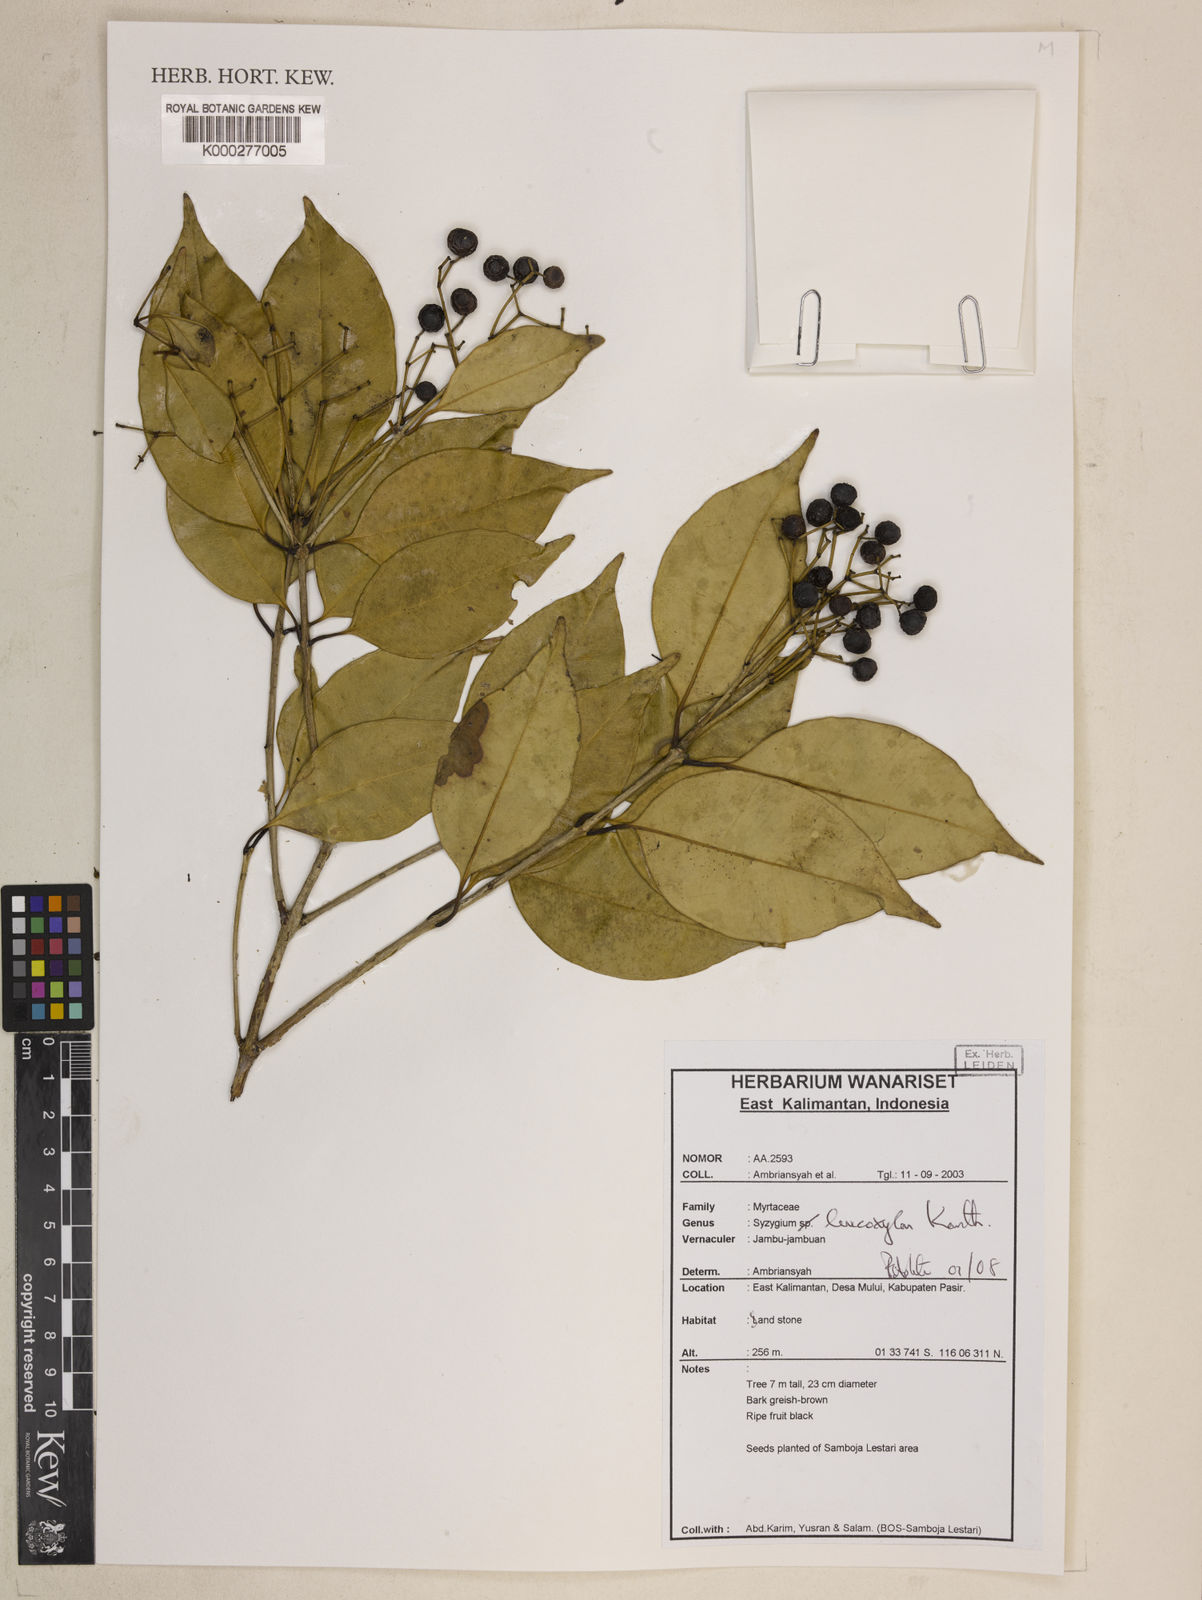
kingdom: Plantae
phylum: Tracheophyta
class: Magnoliopsida
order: Myrtales
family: Myrtaceae
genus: Syzygium
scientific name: Syzygium
